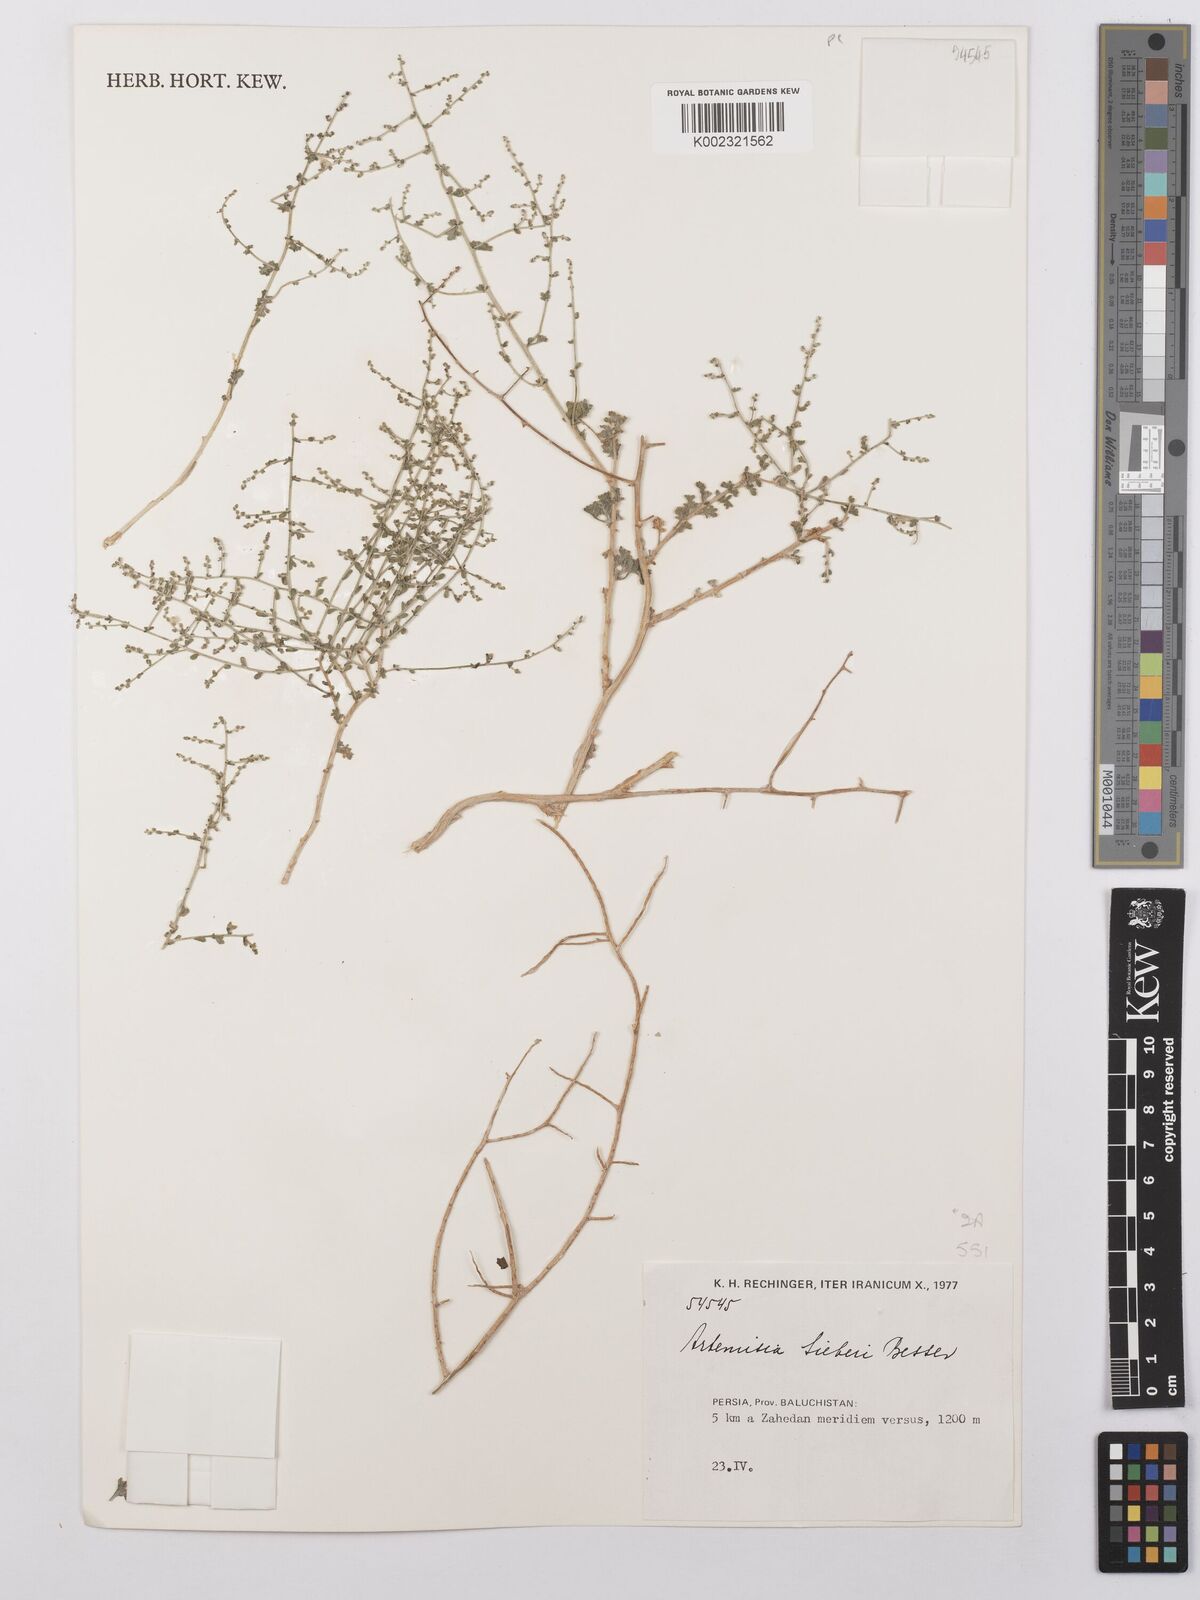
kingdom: Plantae
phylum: Tracheophyta
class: Magnoliopsida
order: Asterales
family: Asteraceae
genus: Artemisia
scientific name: Artemisia sieberi
